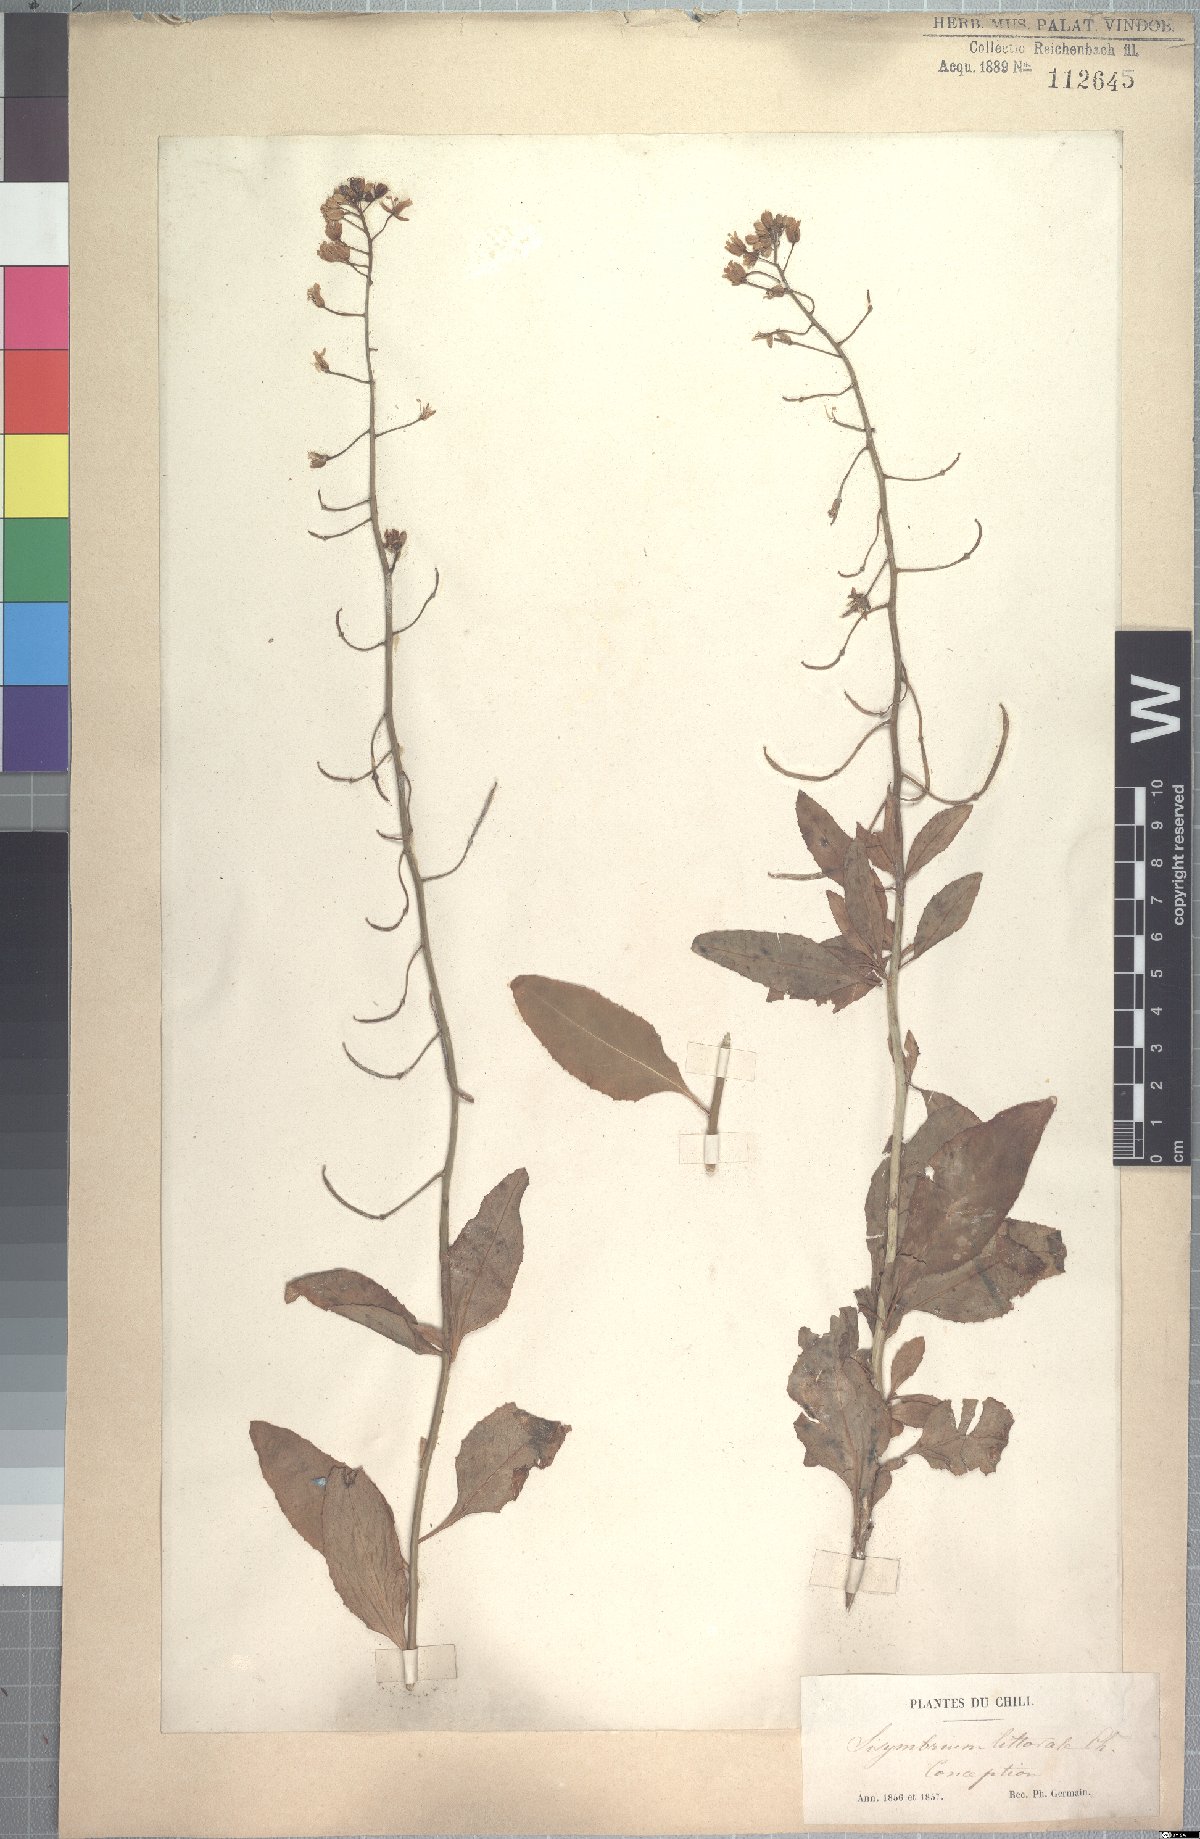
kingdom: Plantae
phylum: Tracheophyta
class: Magnoliopsida
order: Brassicales
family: Brassicaceae
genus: Polypsecadium
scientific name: Polypsecadium litorale
